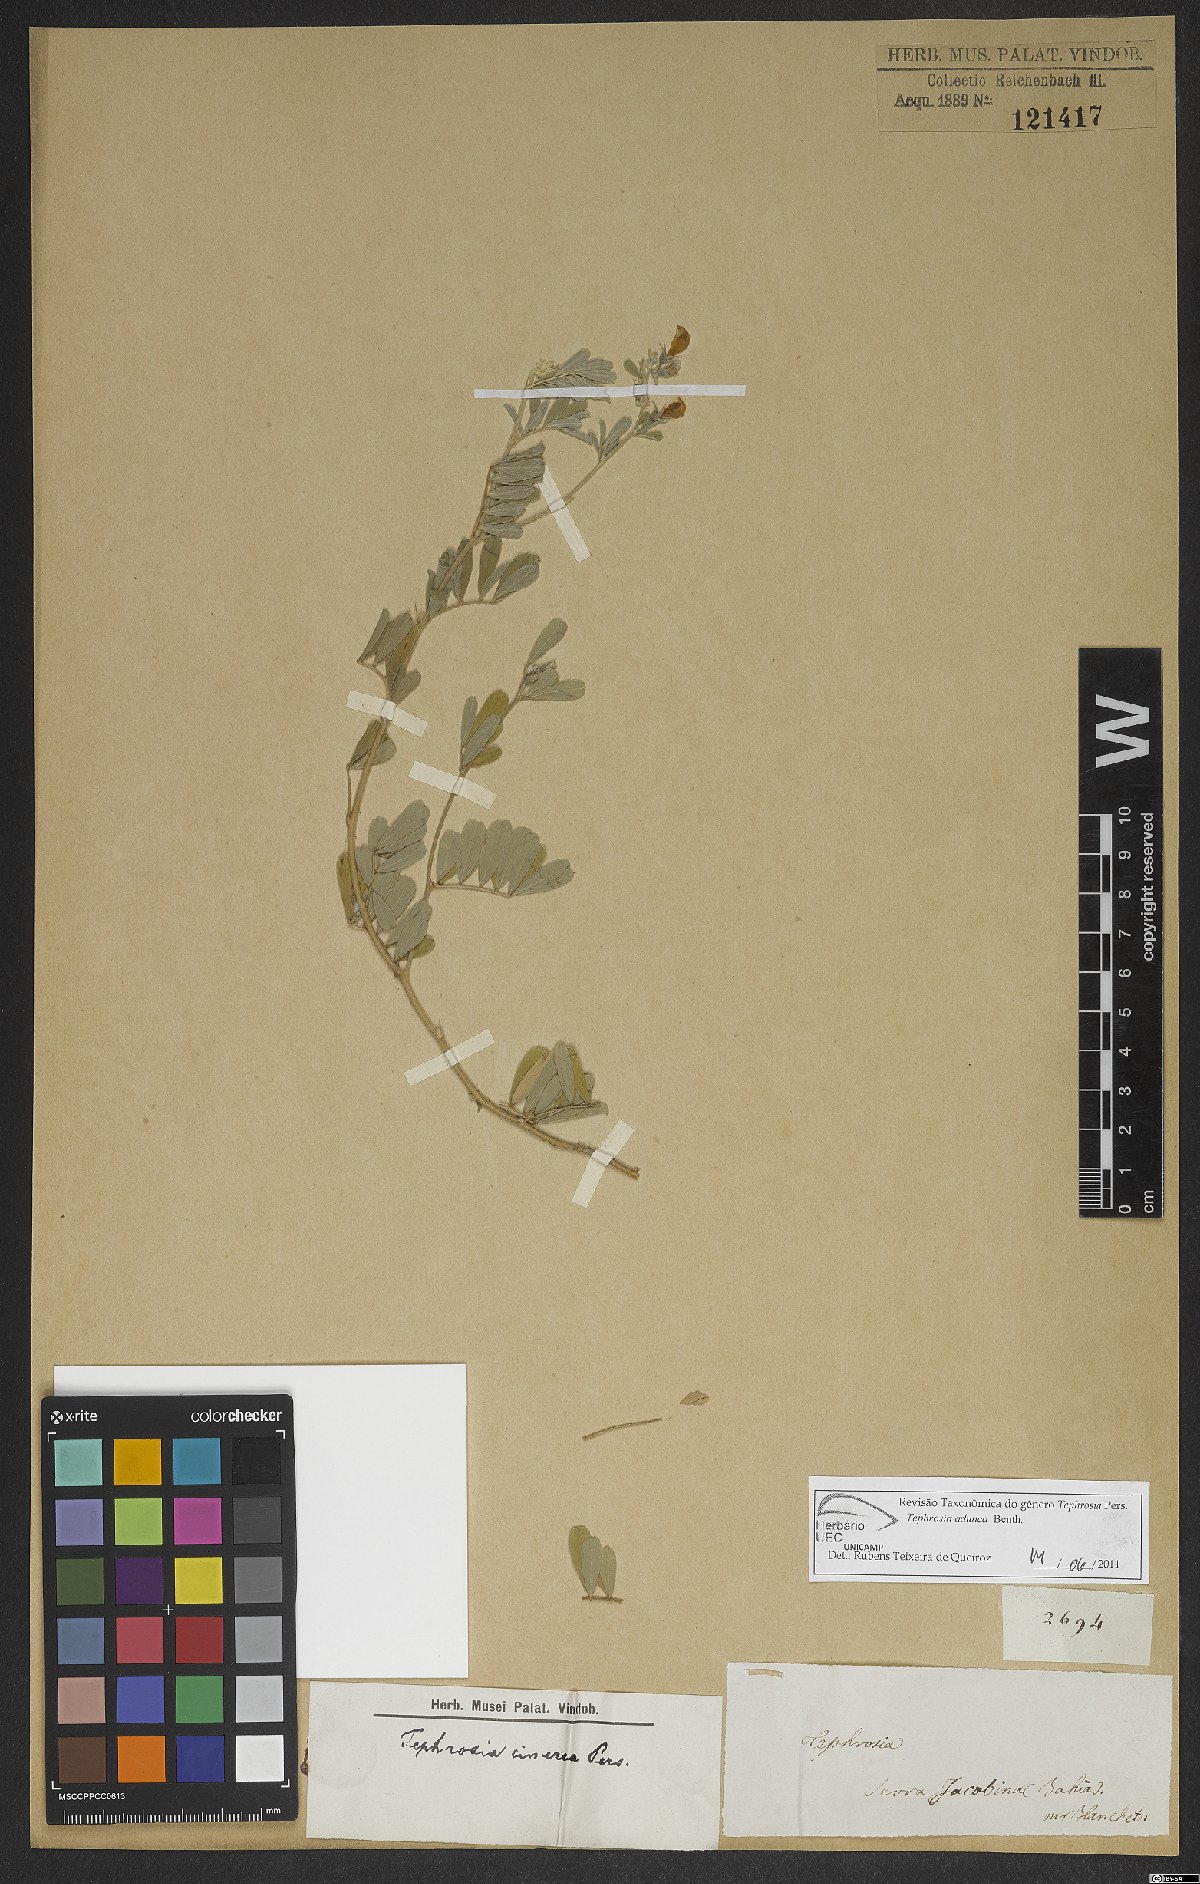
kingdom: Plantae
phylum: Tracheophyta
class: Magnoliopsida
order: Fabales
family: Fabaceae
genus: Tephrosia
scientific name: Tephrosia adunca
